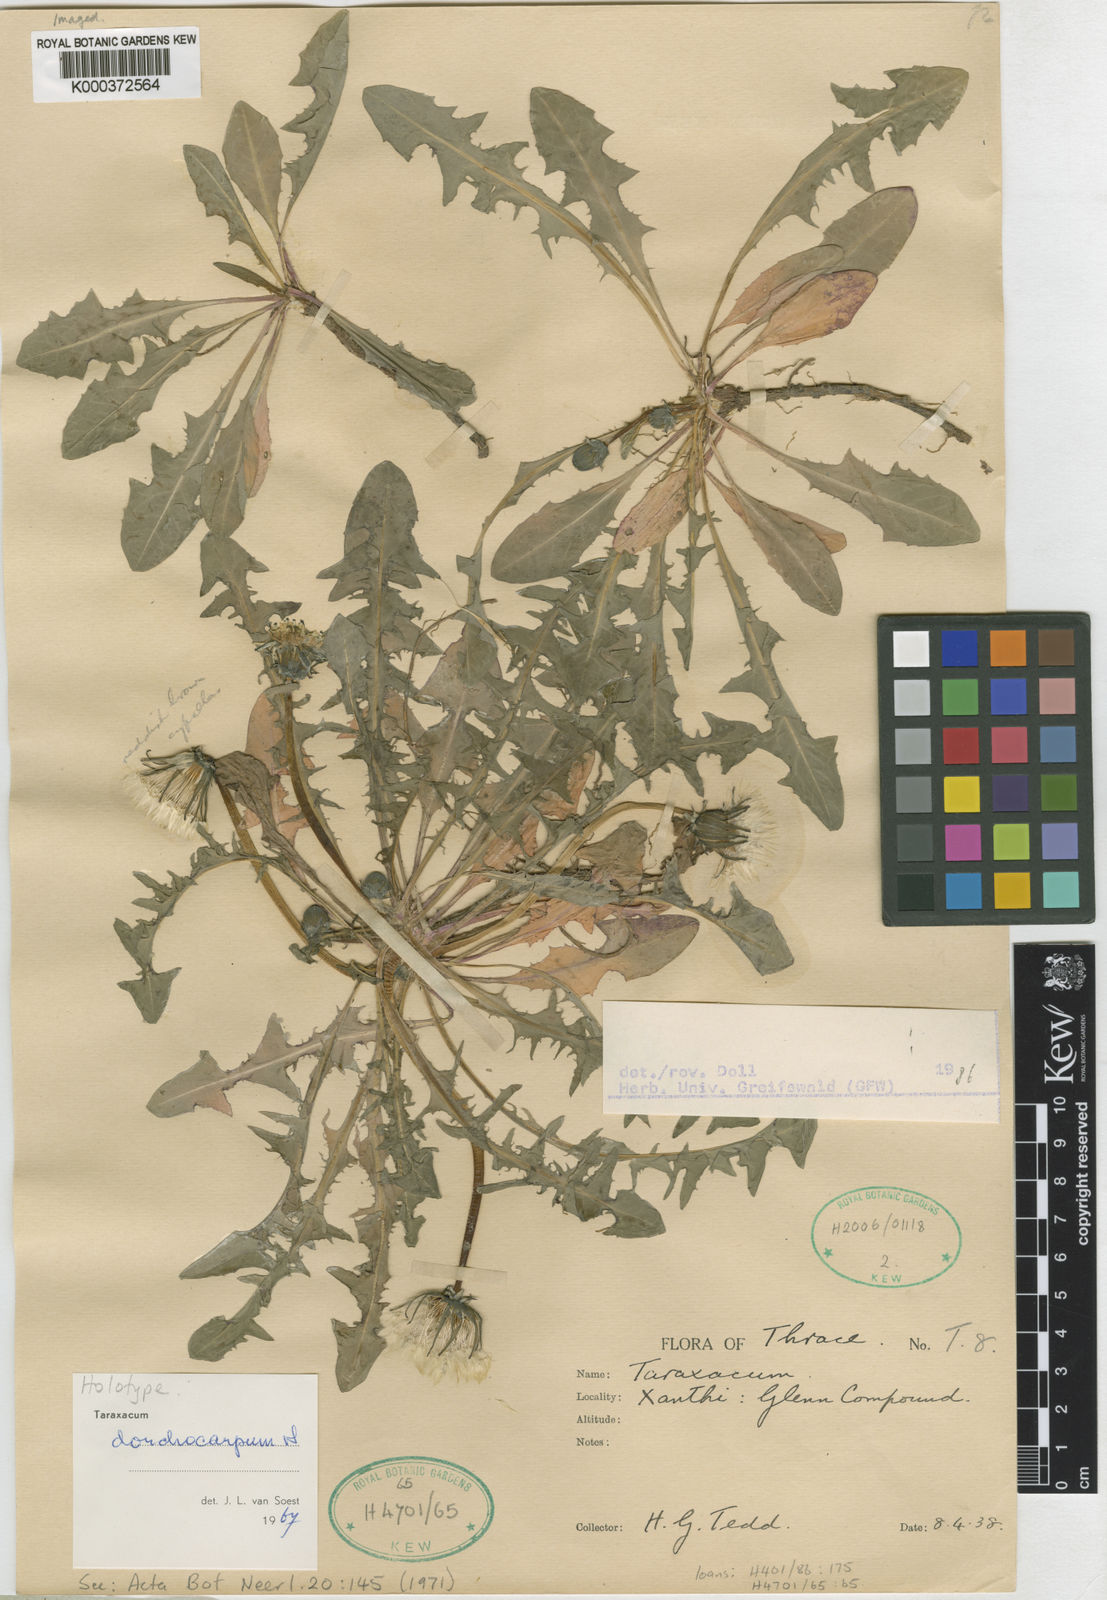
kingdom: Plantae
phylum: Tracheophyta
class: Magnoliopsida
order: Asterales
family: Asteraceae
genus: Taraxacum
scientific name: Taraxacum dorchocarpum
